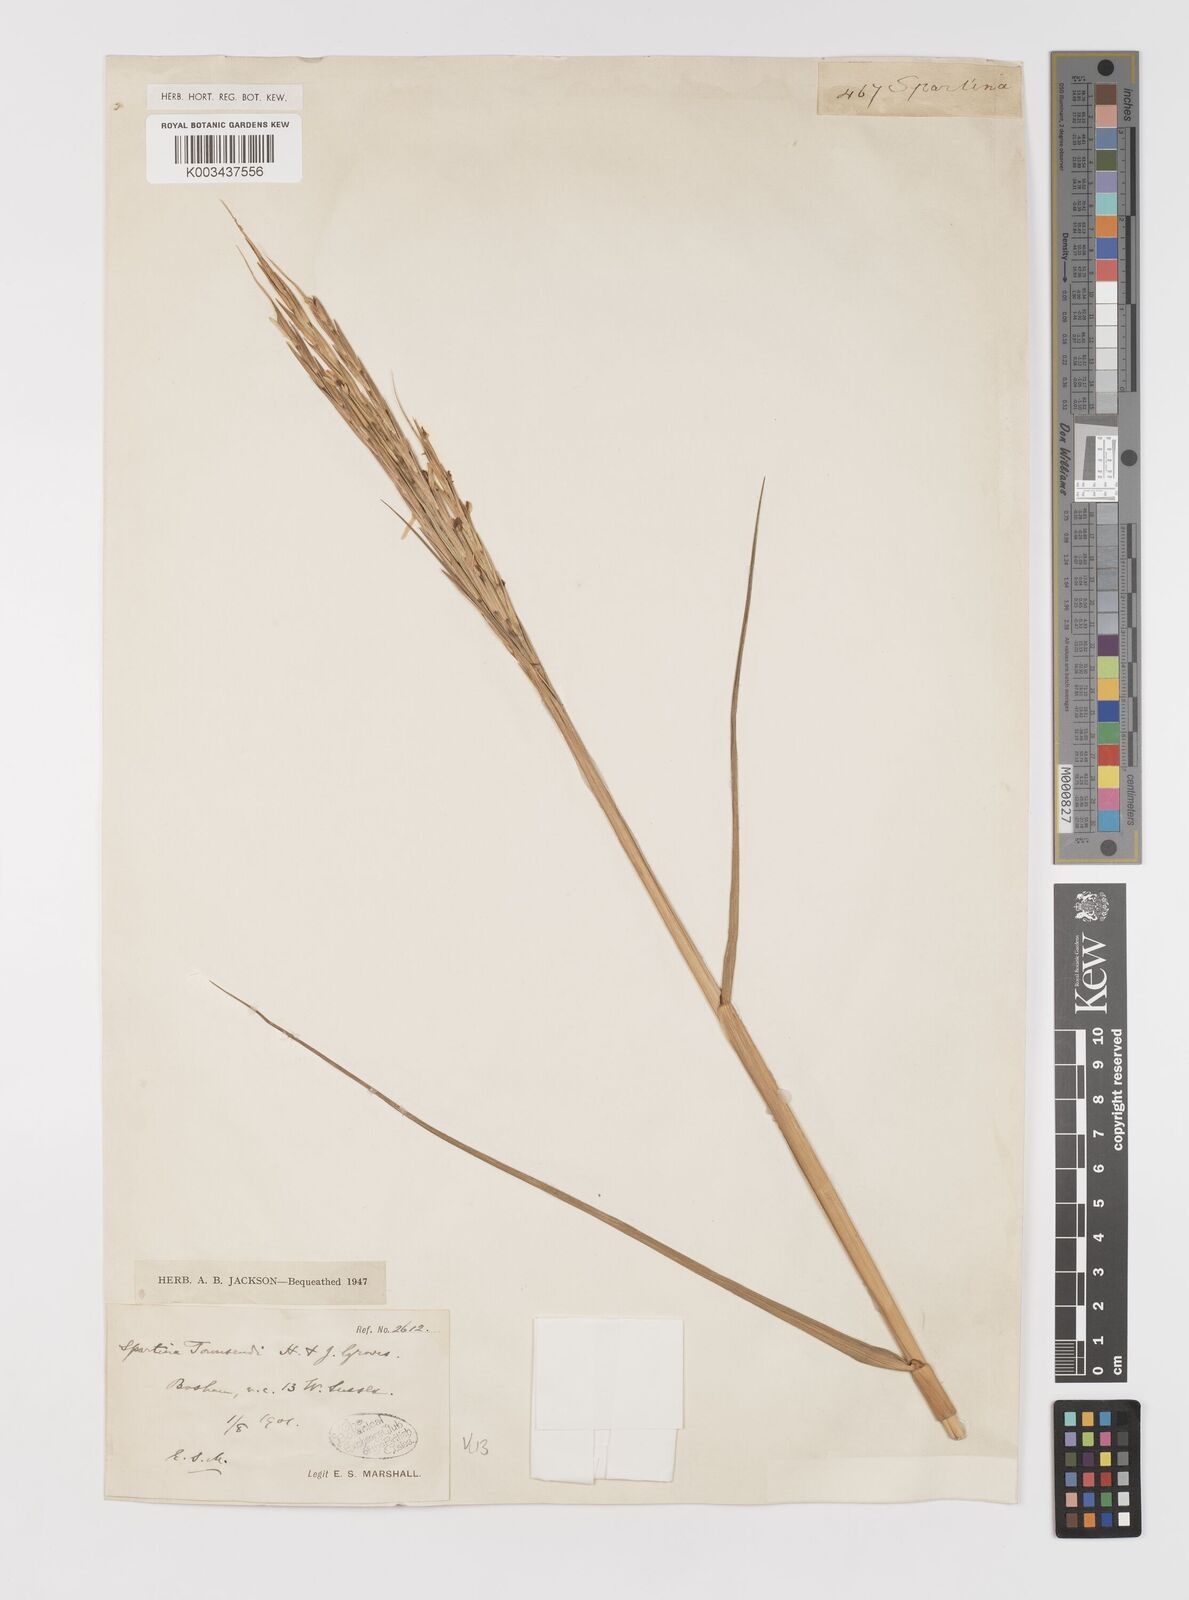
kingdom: Plantae
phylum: Tracheophyta
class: Liliopsida
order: Poales
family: Poaceae
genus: Sporobolus
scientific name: Sporobolus anglicus
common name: English cordgrass
